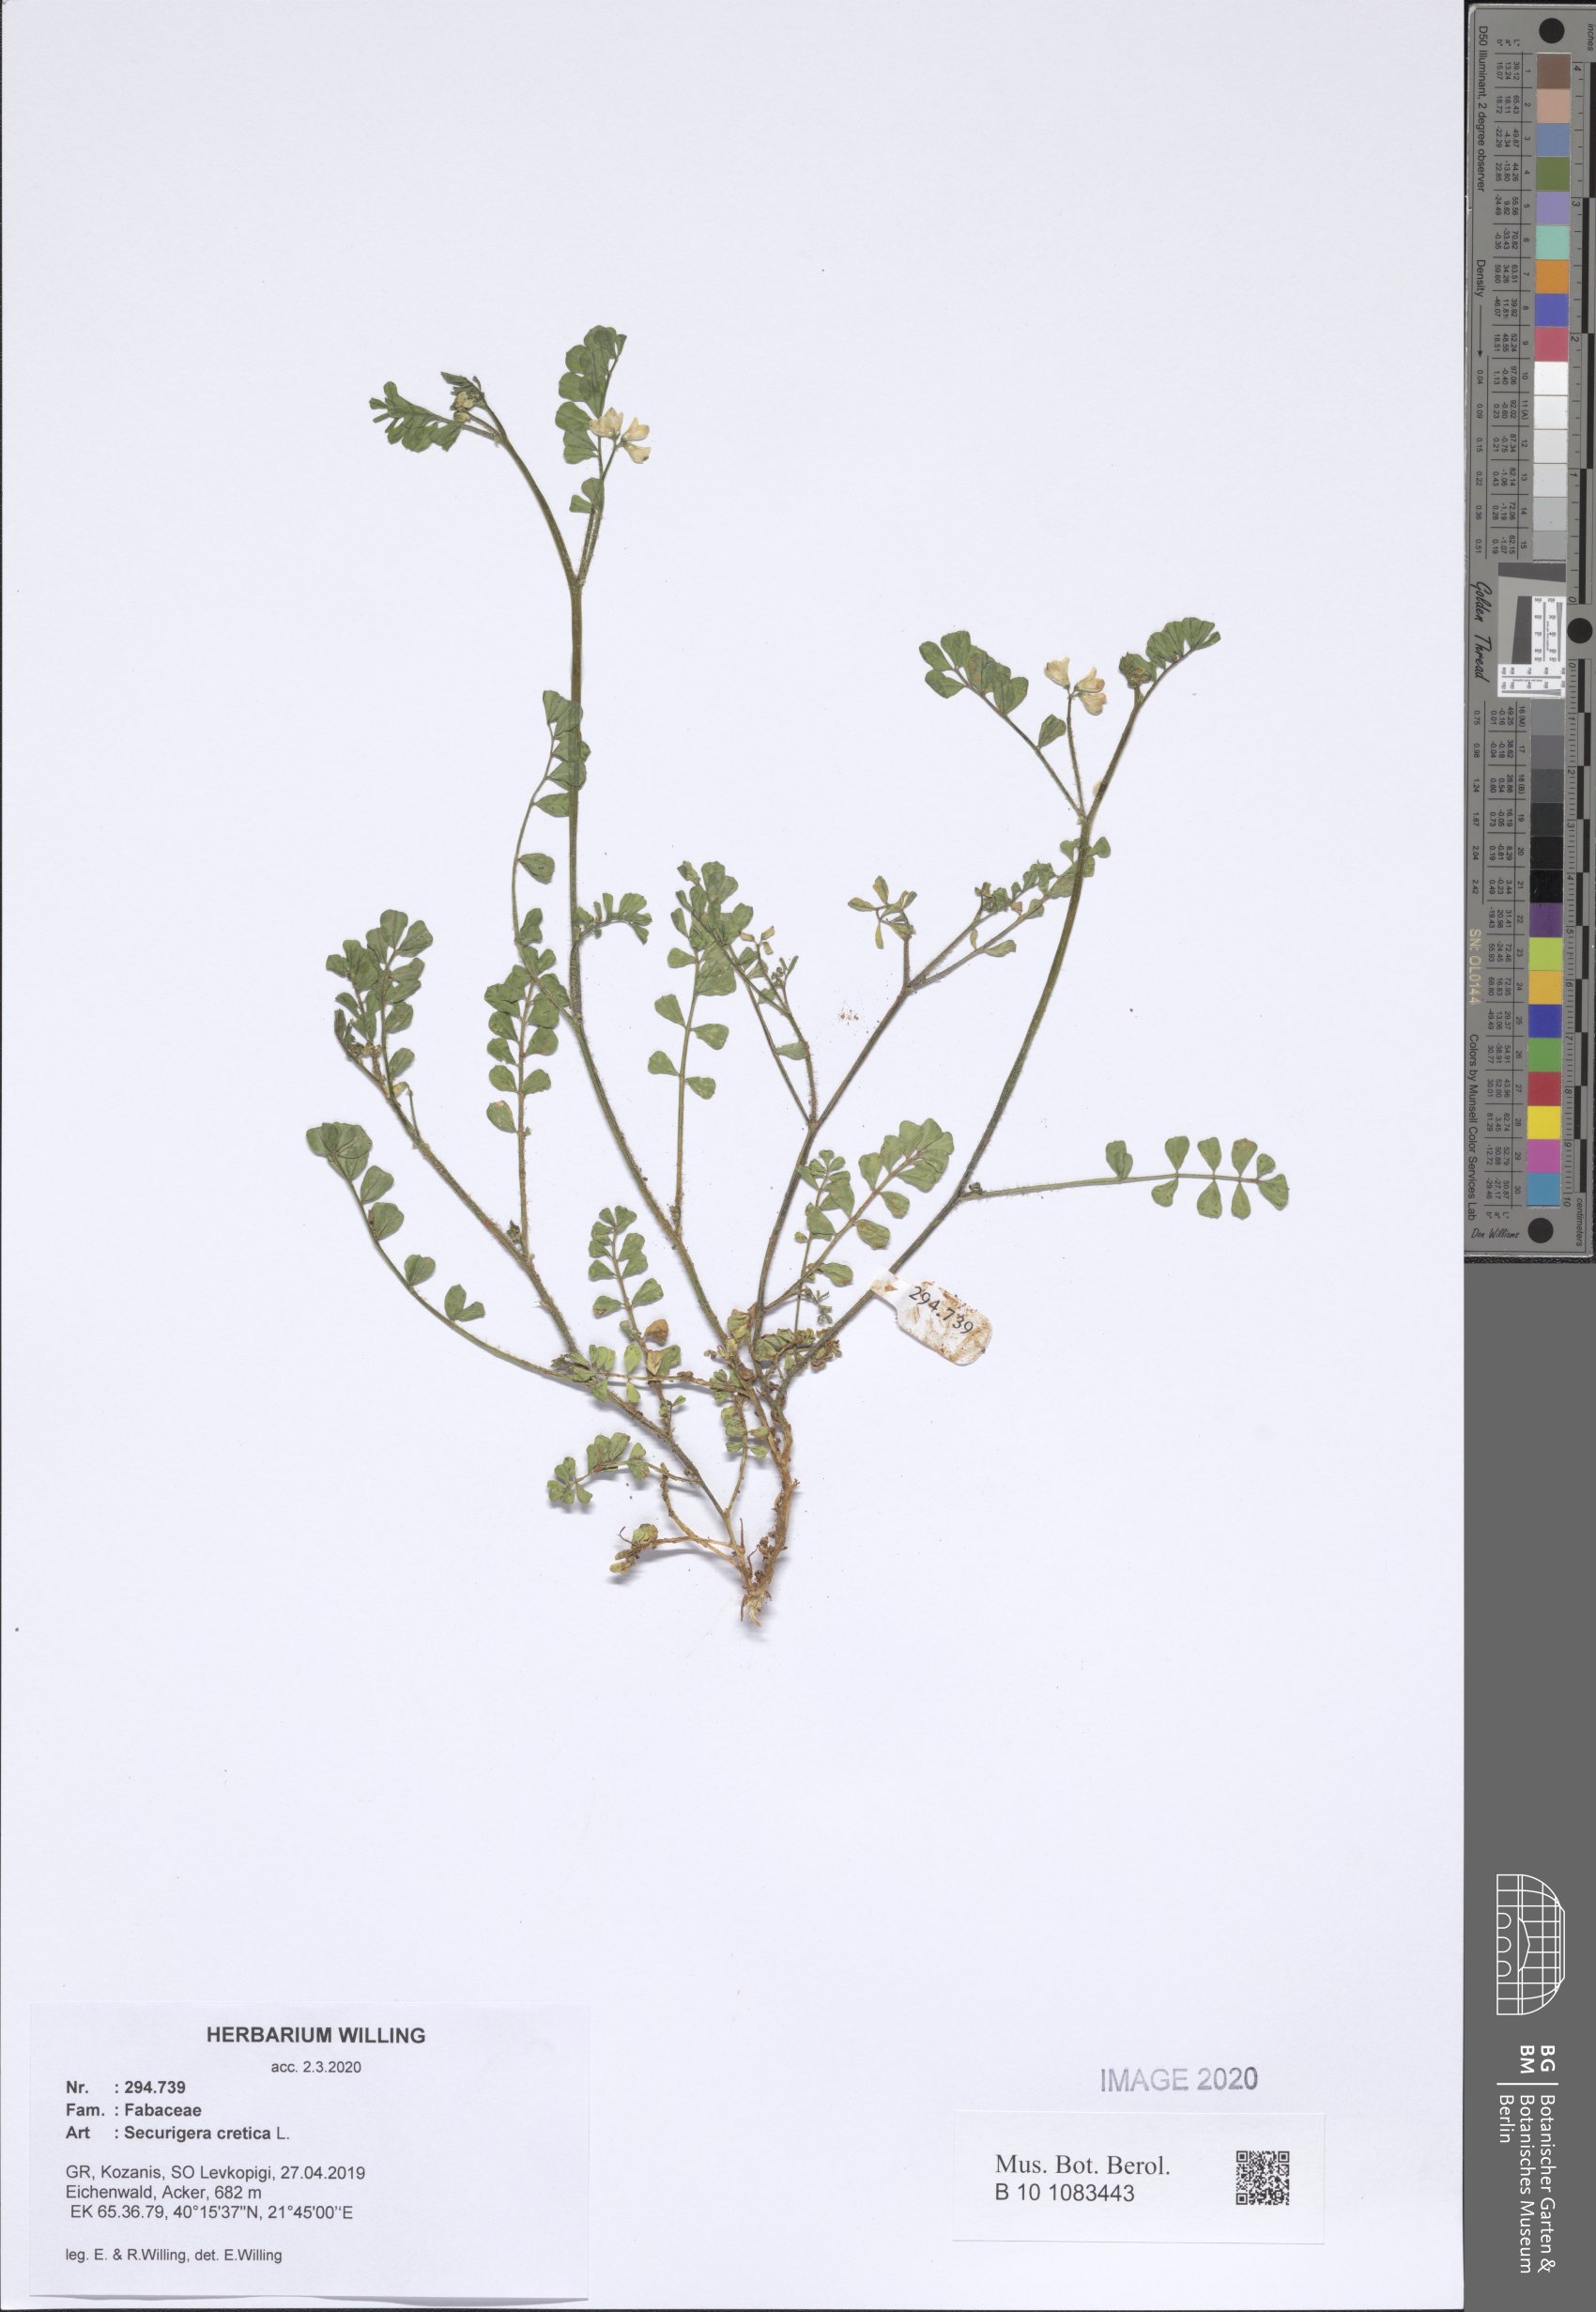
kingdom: Plantae
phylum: Tracheophyta
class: Magnoliopsida
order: Fabales
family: Fabaceae
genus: Coronilla
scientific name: Coronilla cretica
